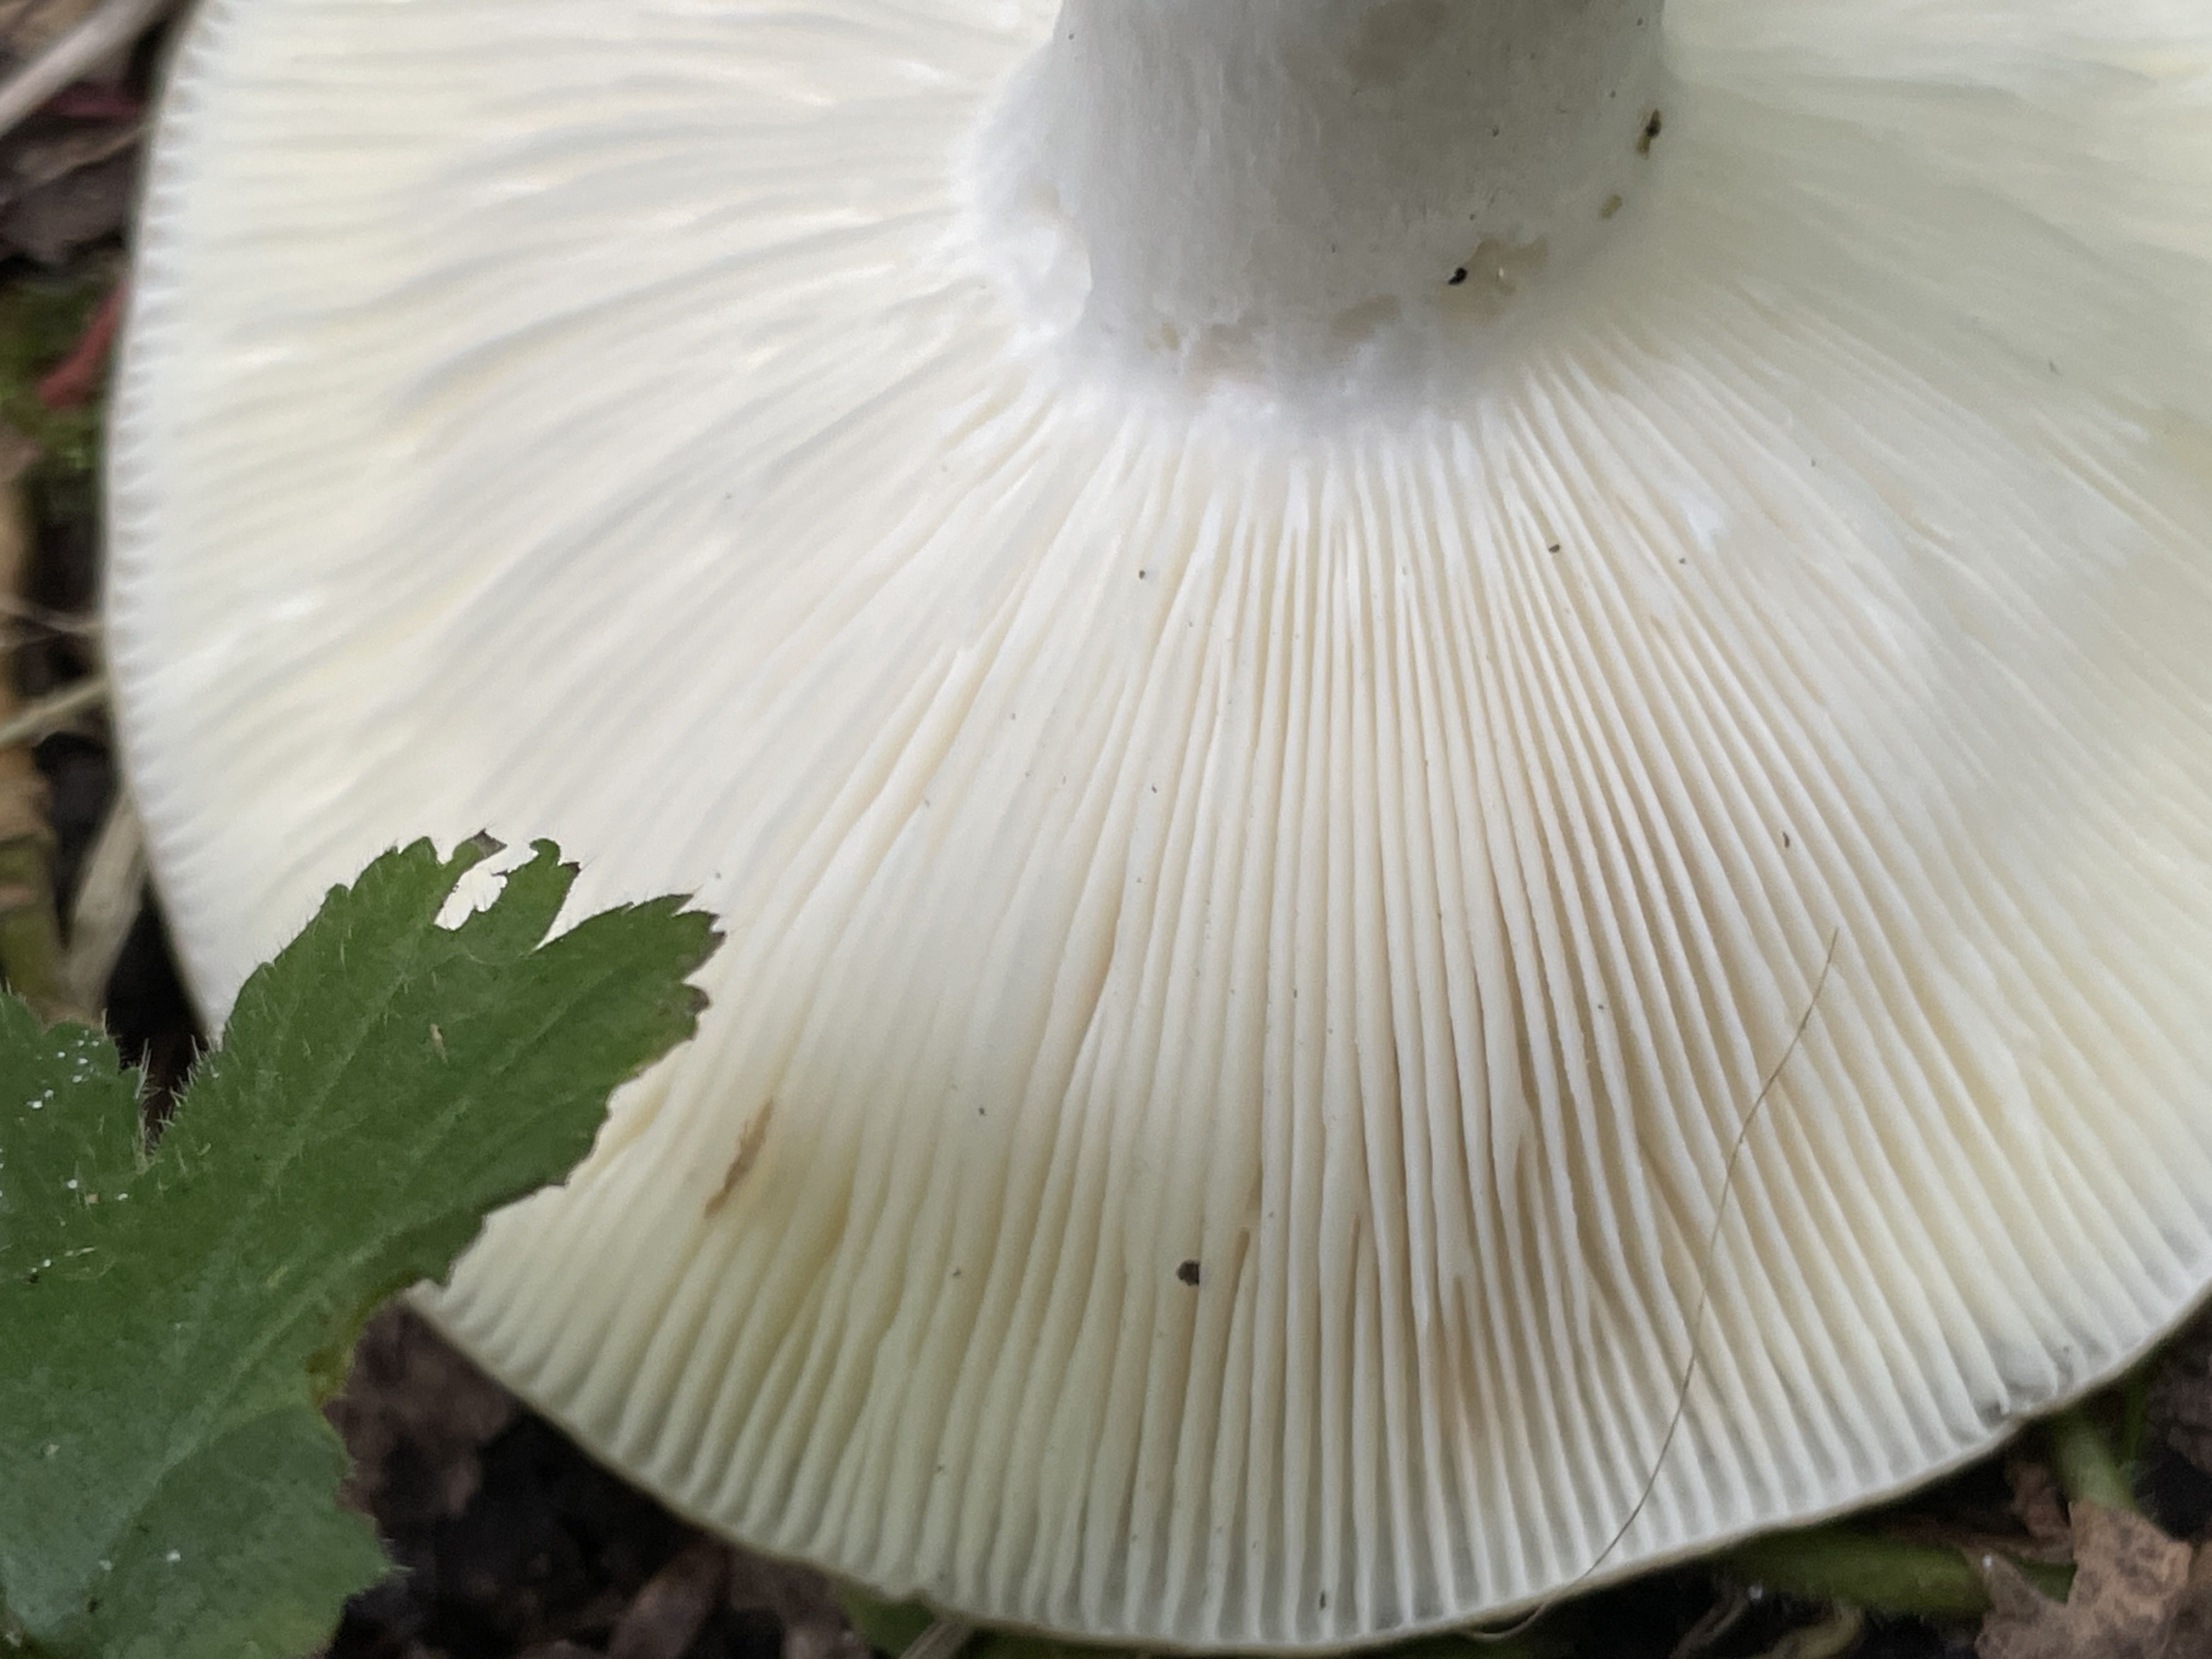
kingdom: Fungi
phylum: Basidiomycota
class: Agaricomycetes
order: Russulales
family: Russulaceae
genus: Russula
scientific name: Russula heterophylla
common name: gaffelbladet skørhat
